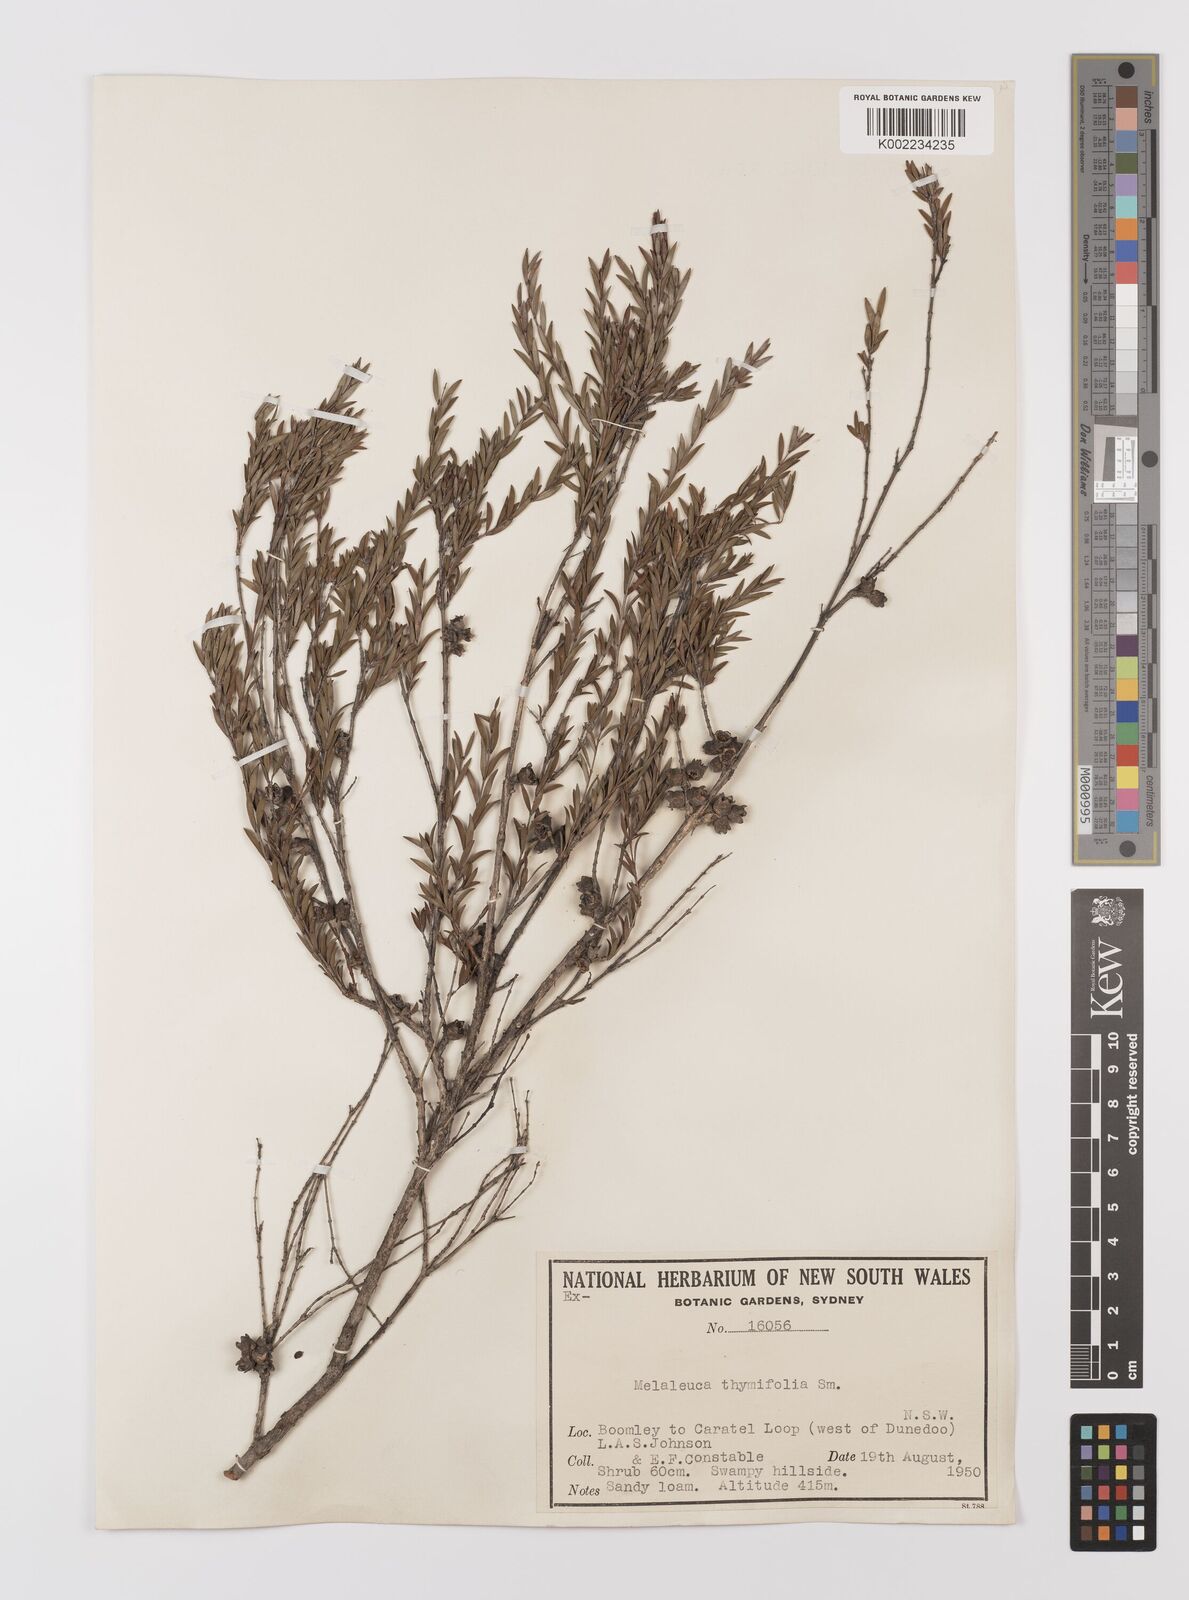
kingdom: Plantae
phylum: Tracheophyta
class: Magnoliopsida
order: Myrtales
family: Myrtaceae
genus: Melaleuca
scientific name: Melaleuca thymifolia
